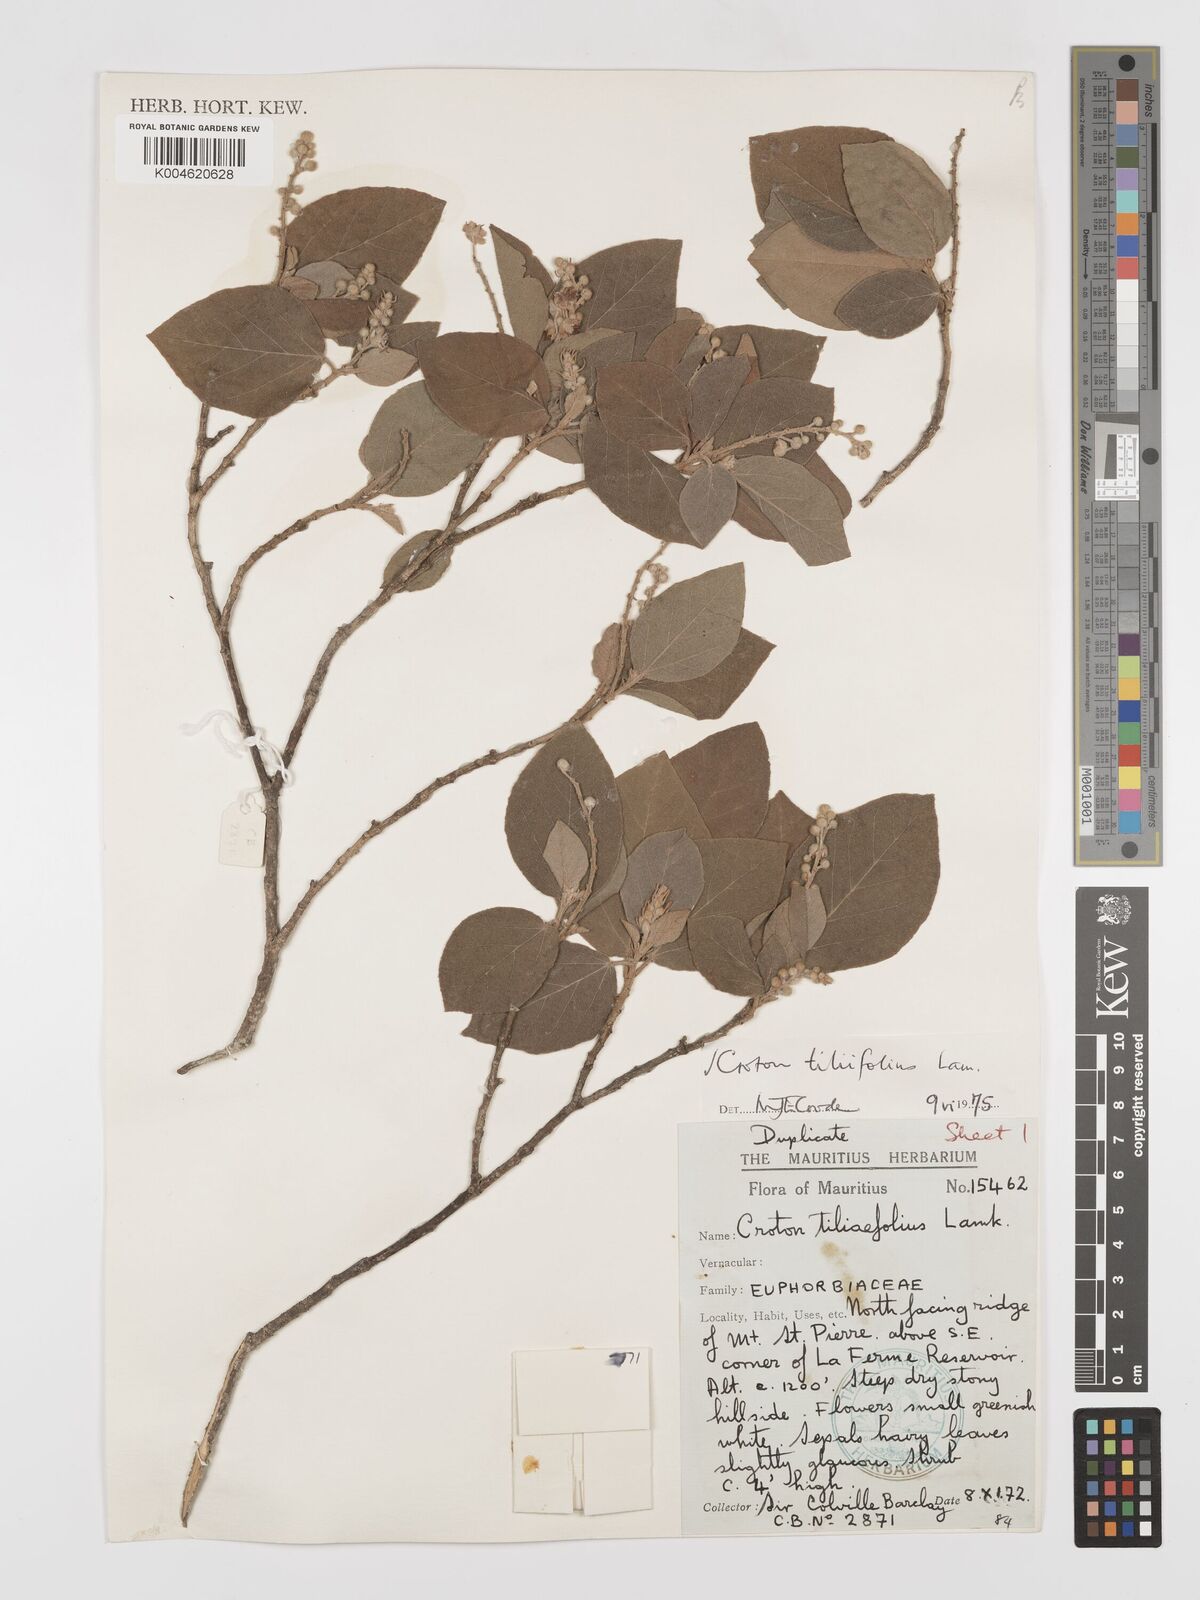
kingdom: Plantae
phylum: Tracheophyta
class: Magnoliopsida
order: Malpighiales
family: Euphorbiaceae
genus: Croton
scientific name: Croton
